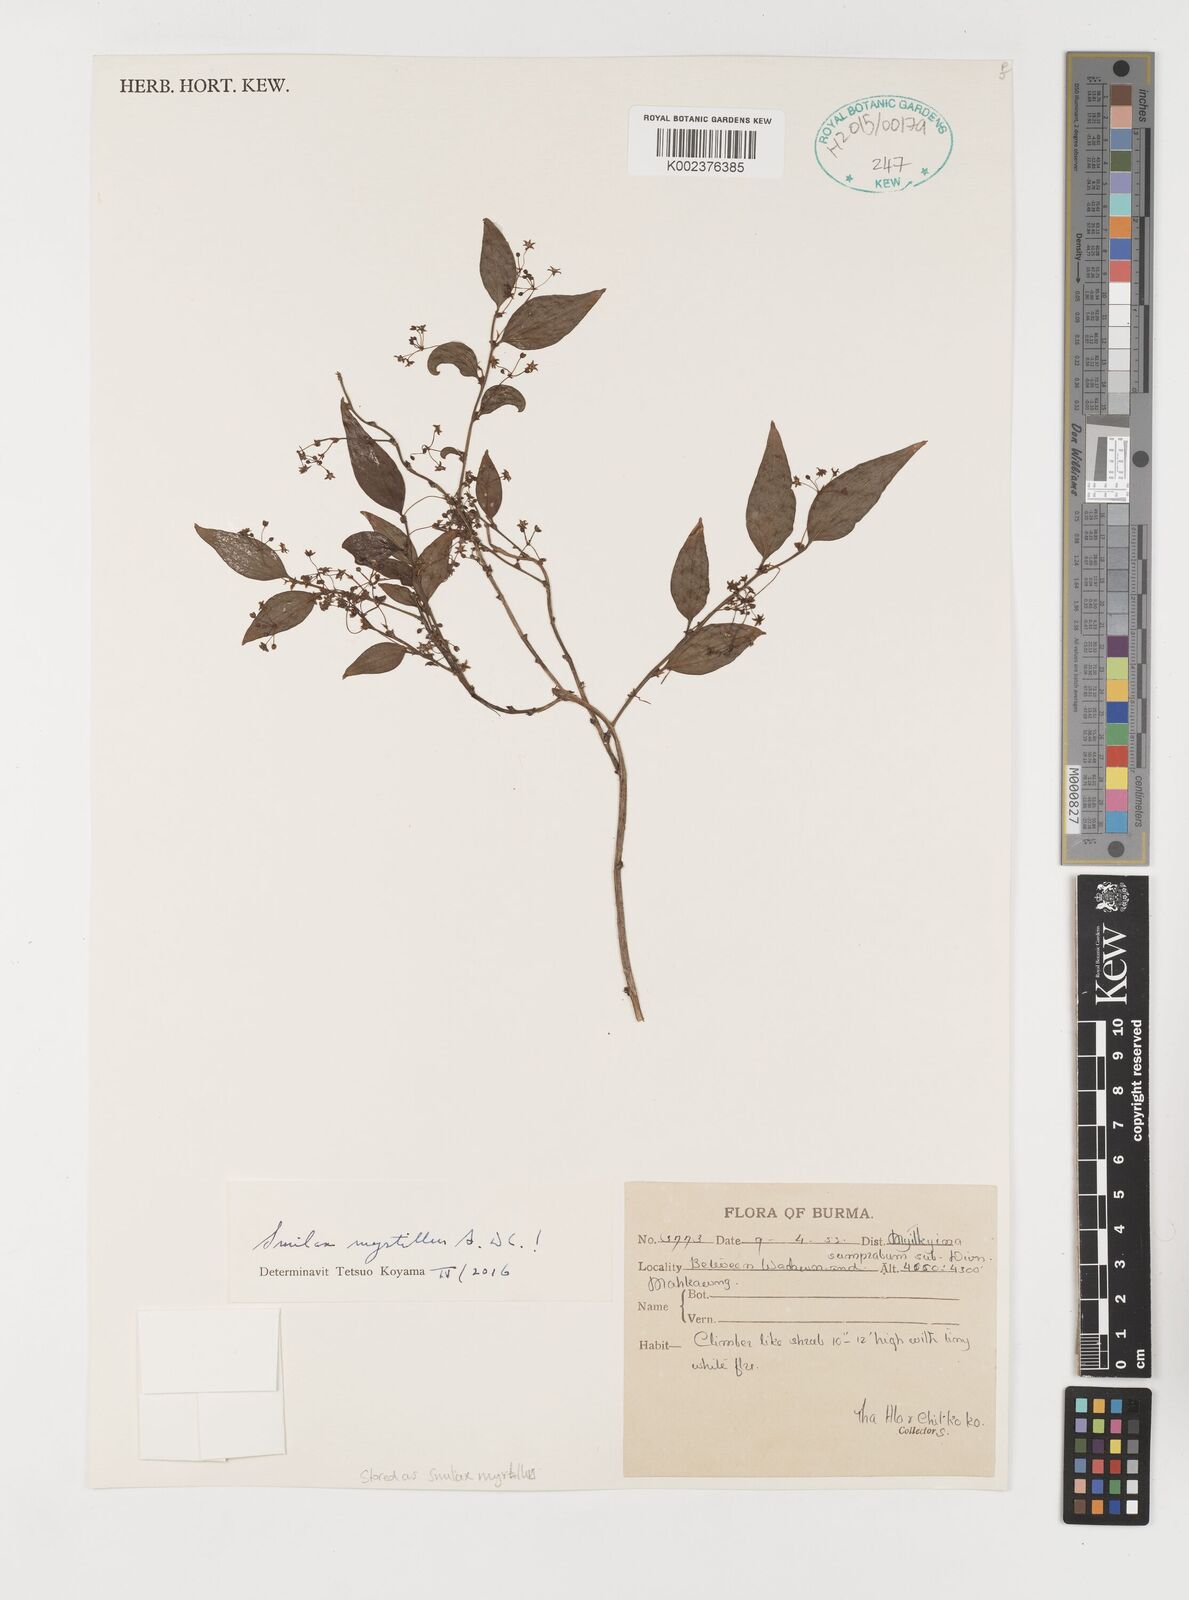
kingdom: Plantae
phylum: Tracheophyta
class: Liliopsida
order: Liliales
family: Smilacaceae
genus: Smilax
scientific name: Smilax myrtillus
